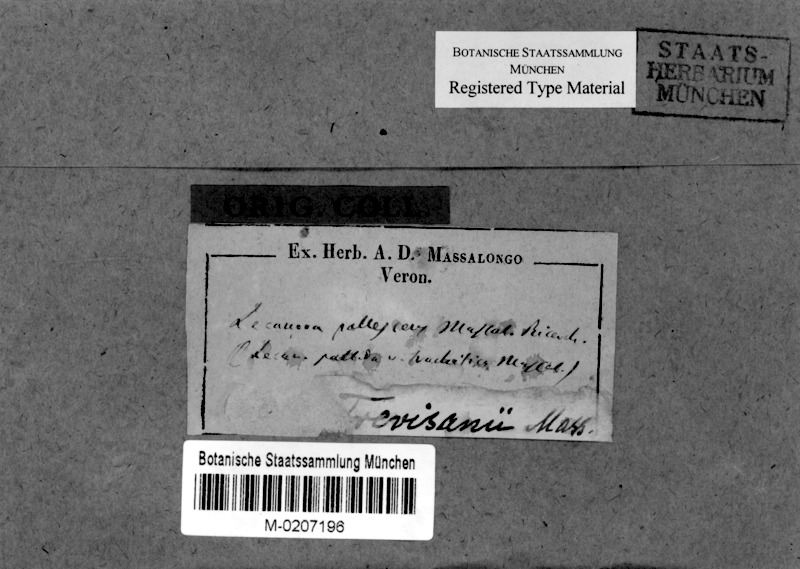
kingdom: Fungi
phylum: Ascomycota
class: Lecanoromycetes
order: Lecanorales
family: Lecanoraceae
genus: Lecanora
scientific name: Lecanora subcarnea
